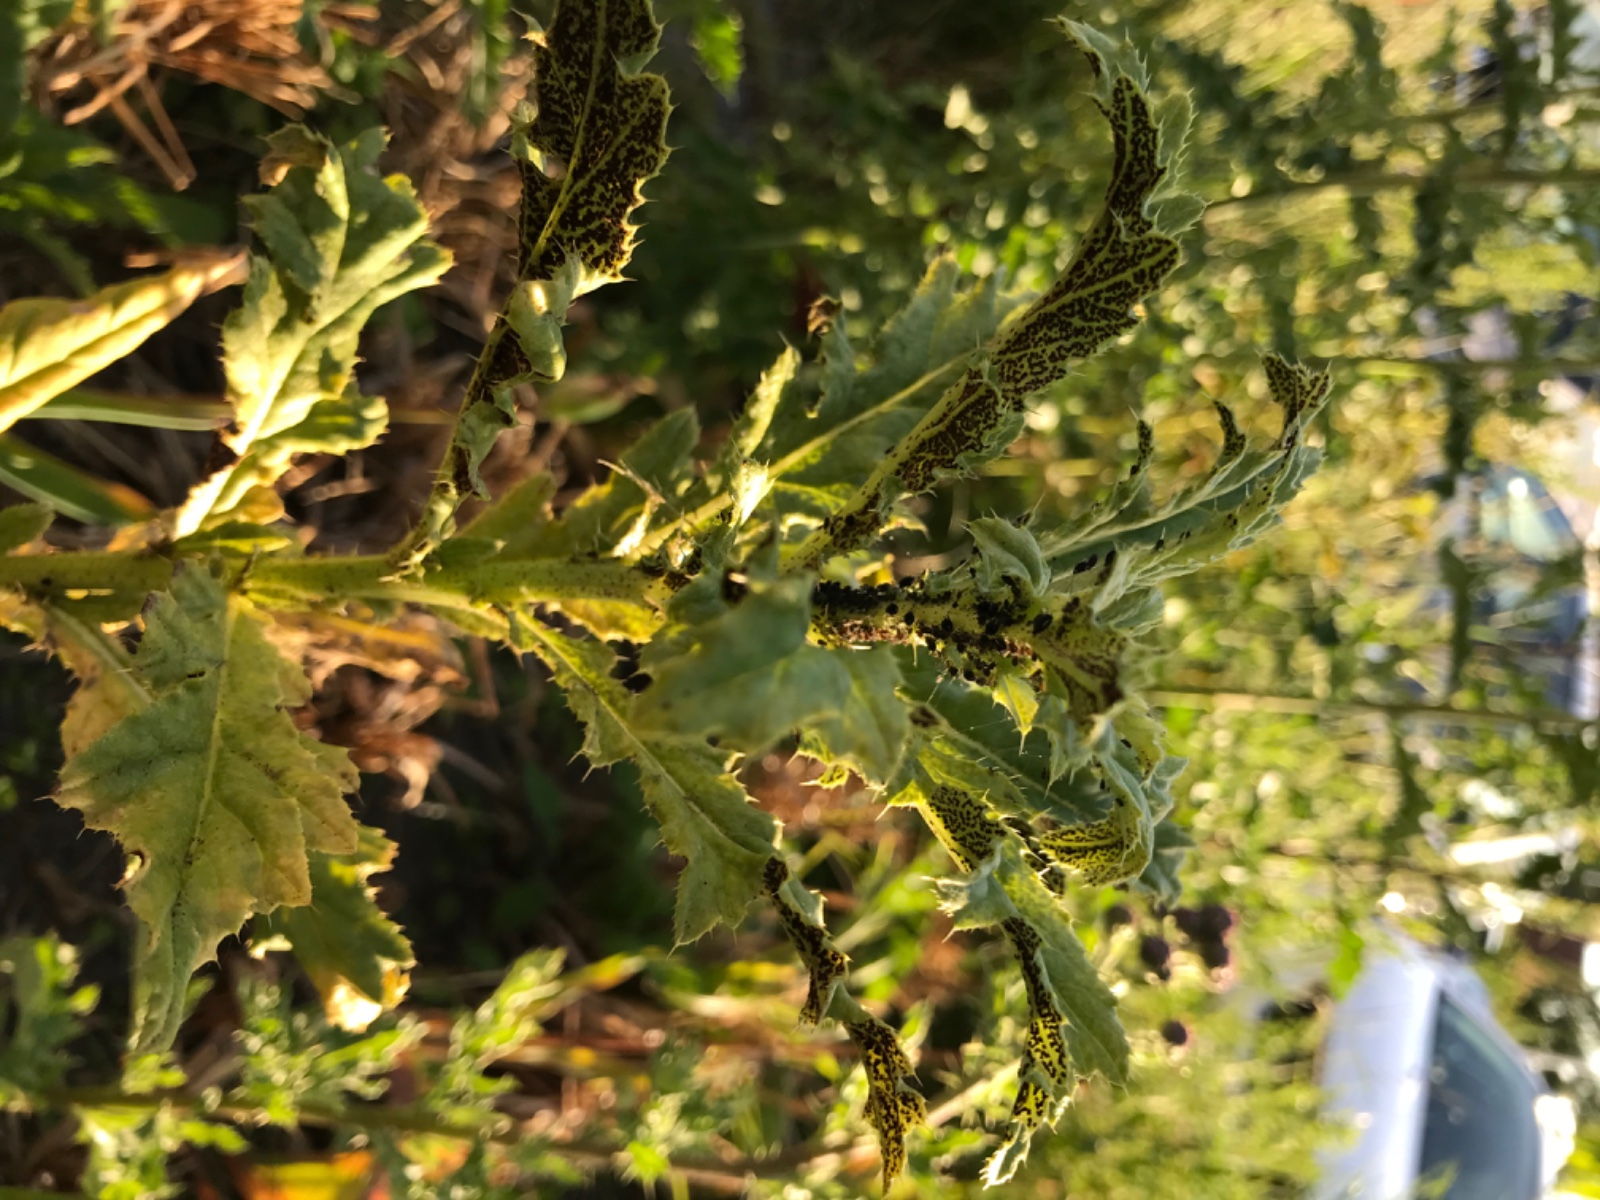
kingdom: Fungi
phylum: Basidiomycota
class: Pucciniomycetes
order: Pucciniales
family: Pucciniaceae
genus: Puccinia
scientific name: Puccinia suaveolens
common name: tidsel-tvecellerust
